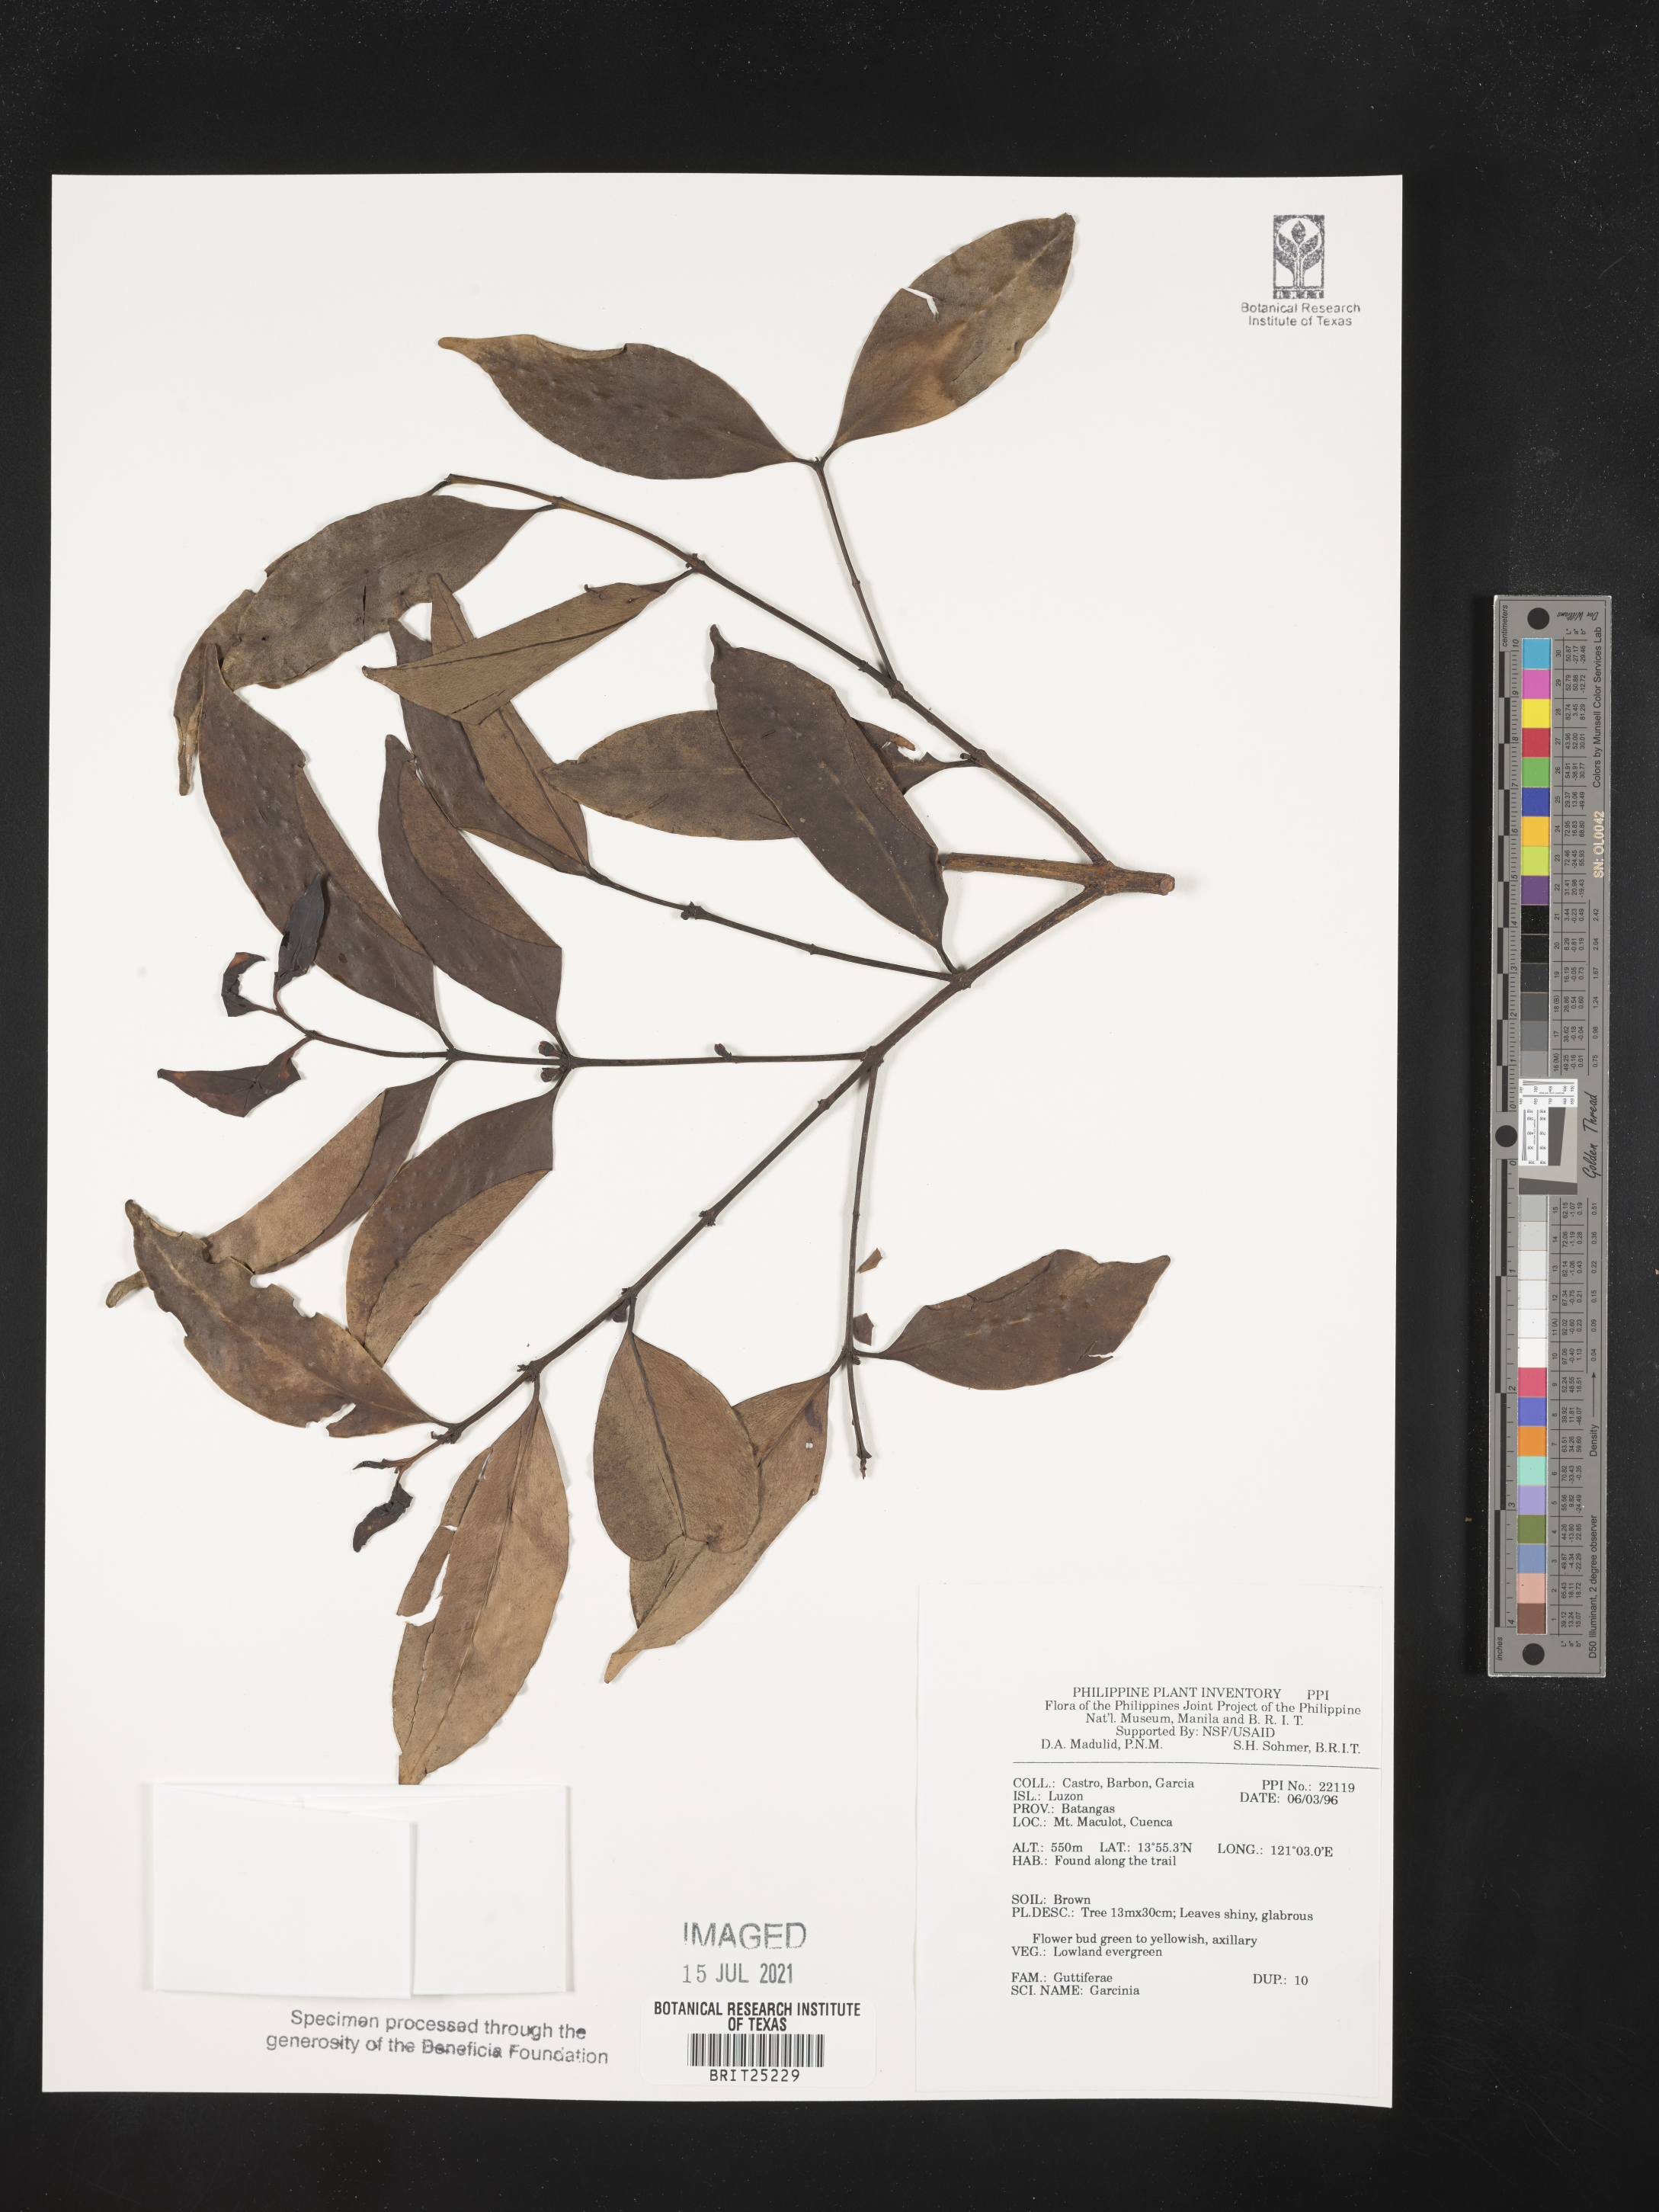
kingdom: Plantae
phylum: Tracheophyta
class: Magnoliopsida
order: Malpighiales
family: Clusiaceae
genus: Garcinia
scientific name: Garcinia
